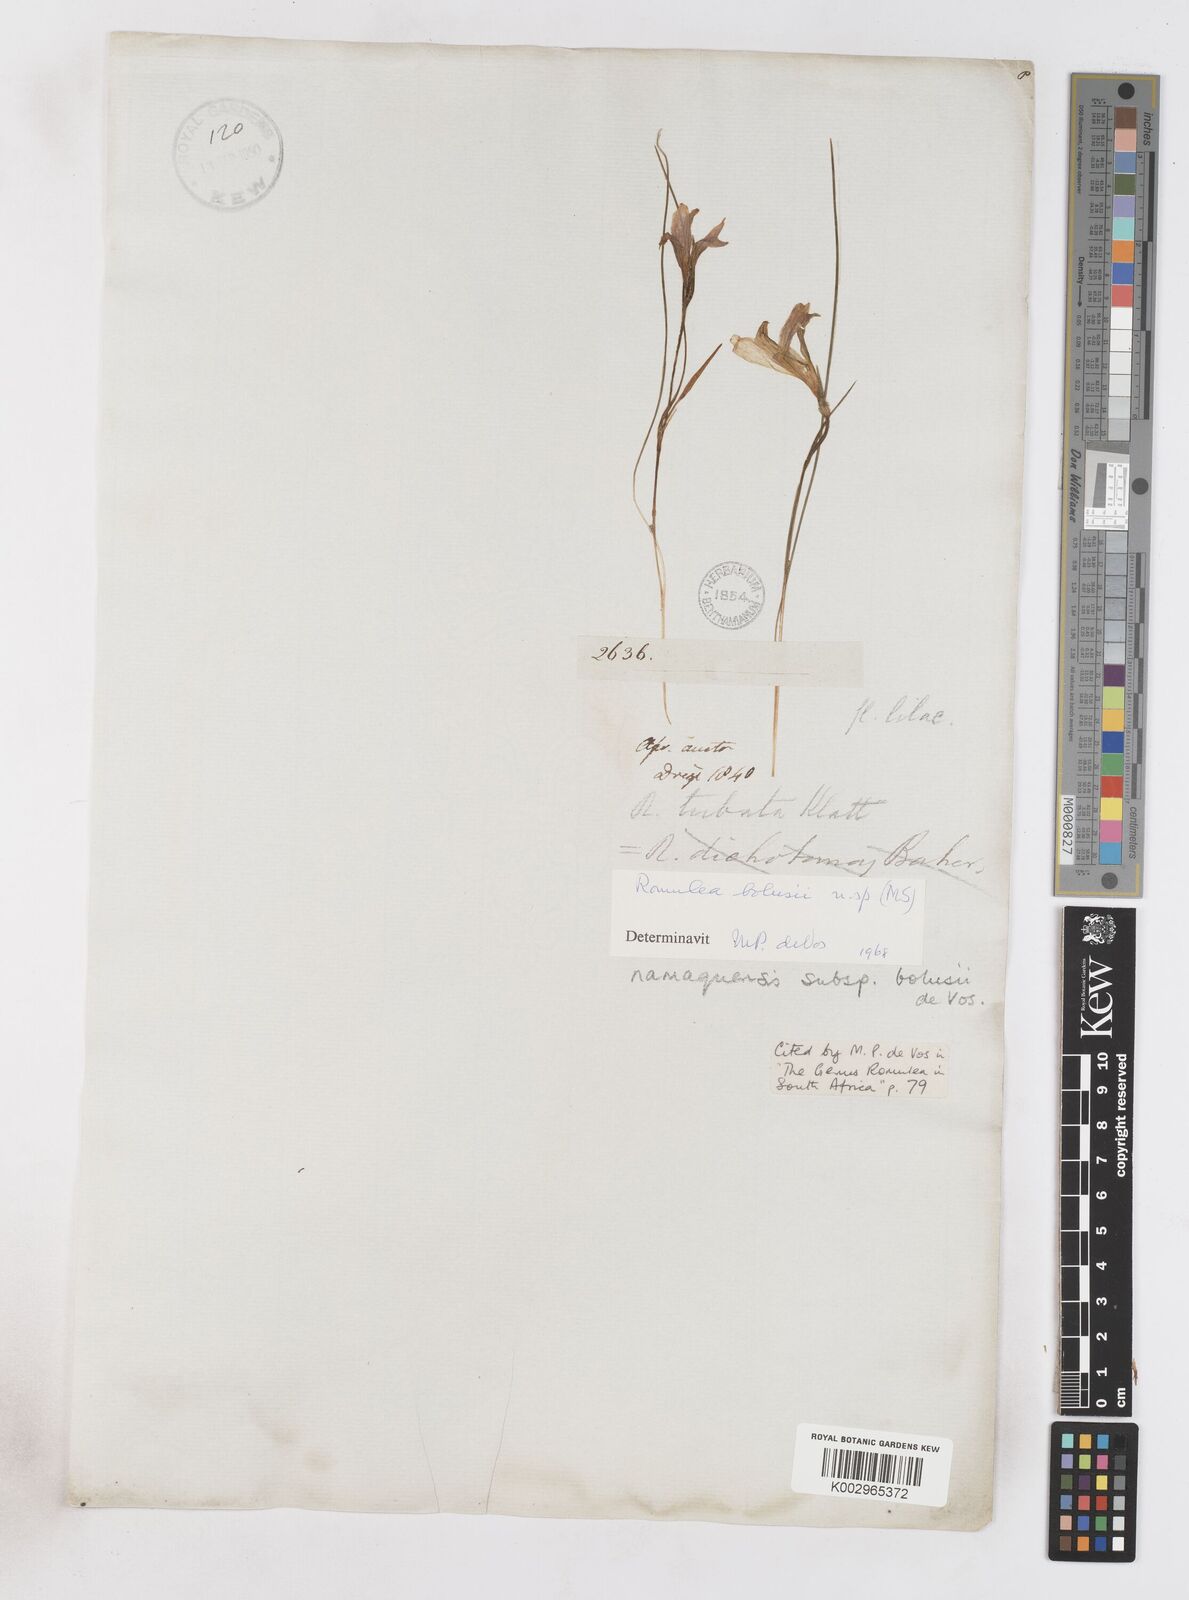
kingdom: Plantae
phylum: Tracheophyta
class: Liliopsida
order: Asparagales
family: Iridaceae
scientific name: Iridaceae
